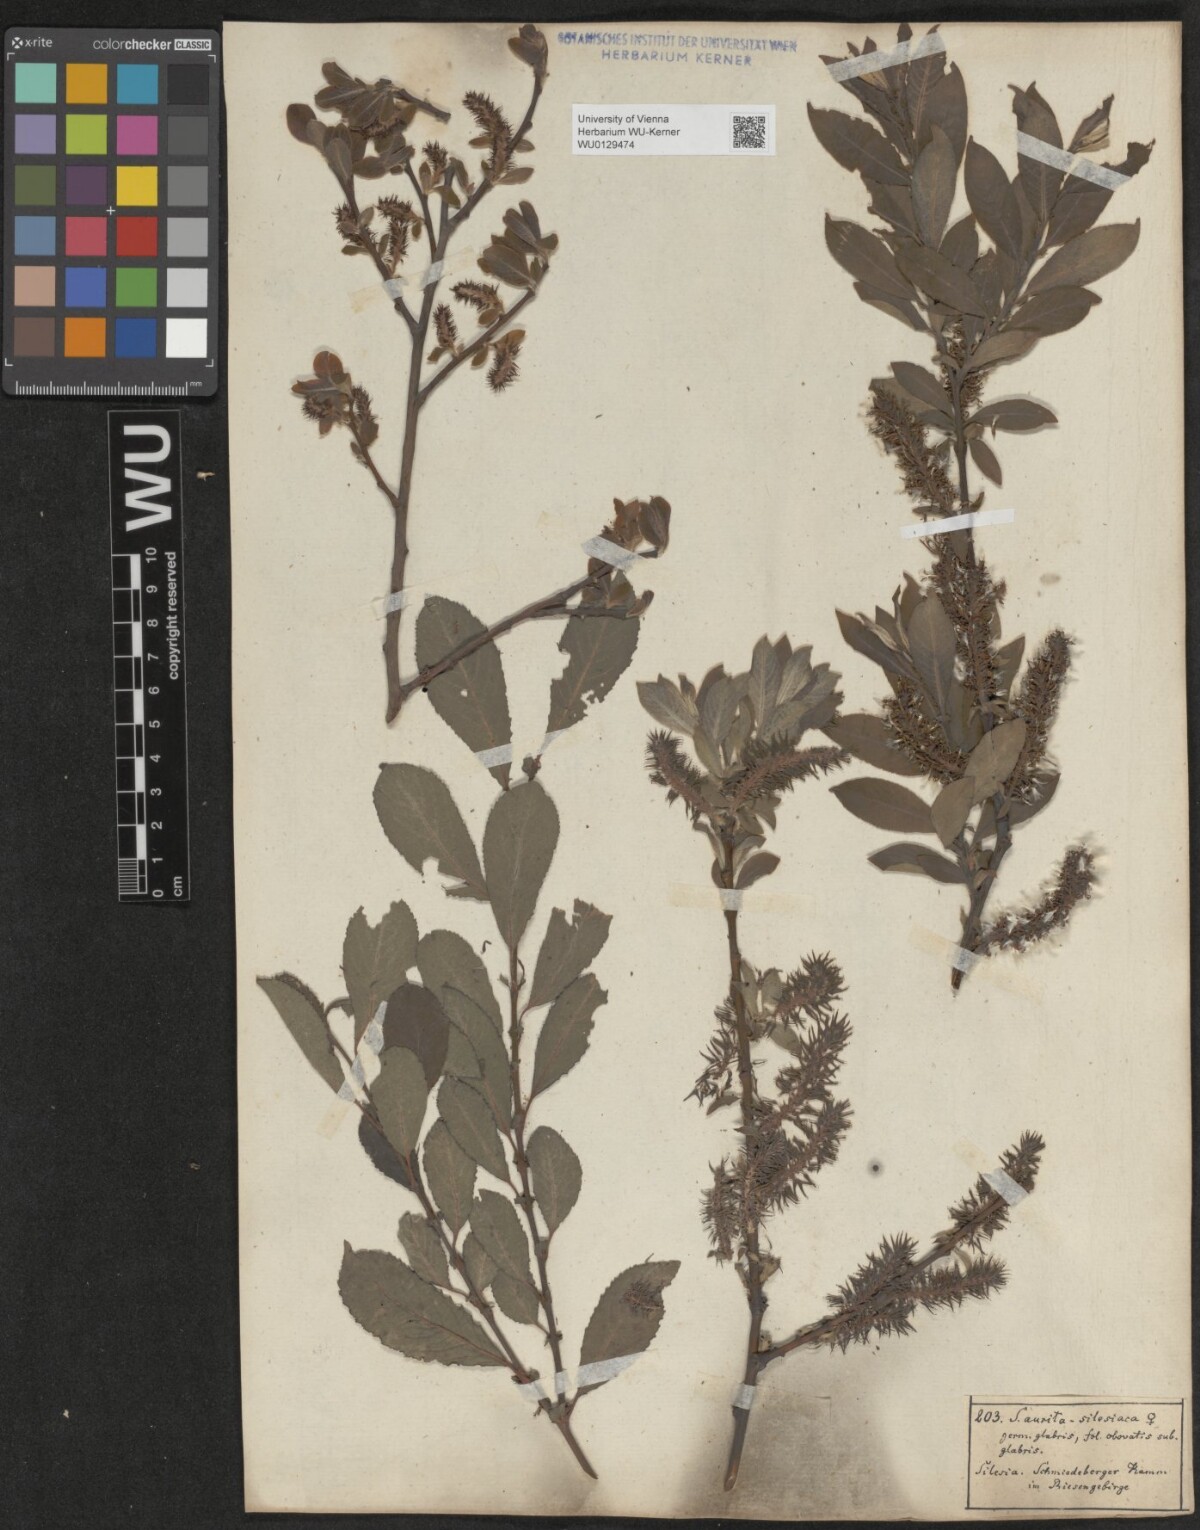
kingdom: Plantae
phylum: Tracheophyta
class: Magnoliopsida
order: Malpighiales
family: Salicaceae
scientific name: Salicaceae
